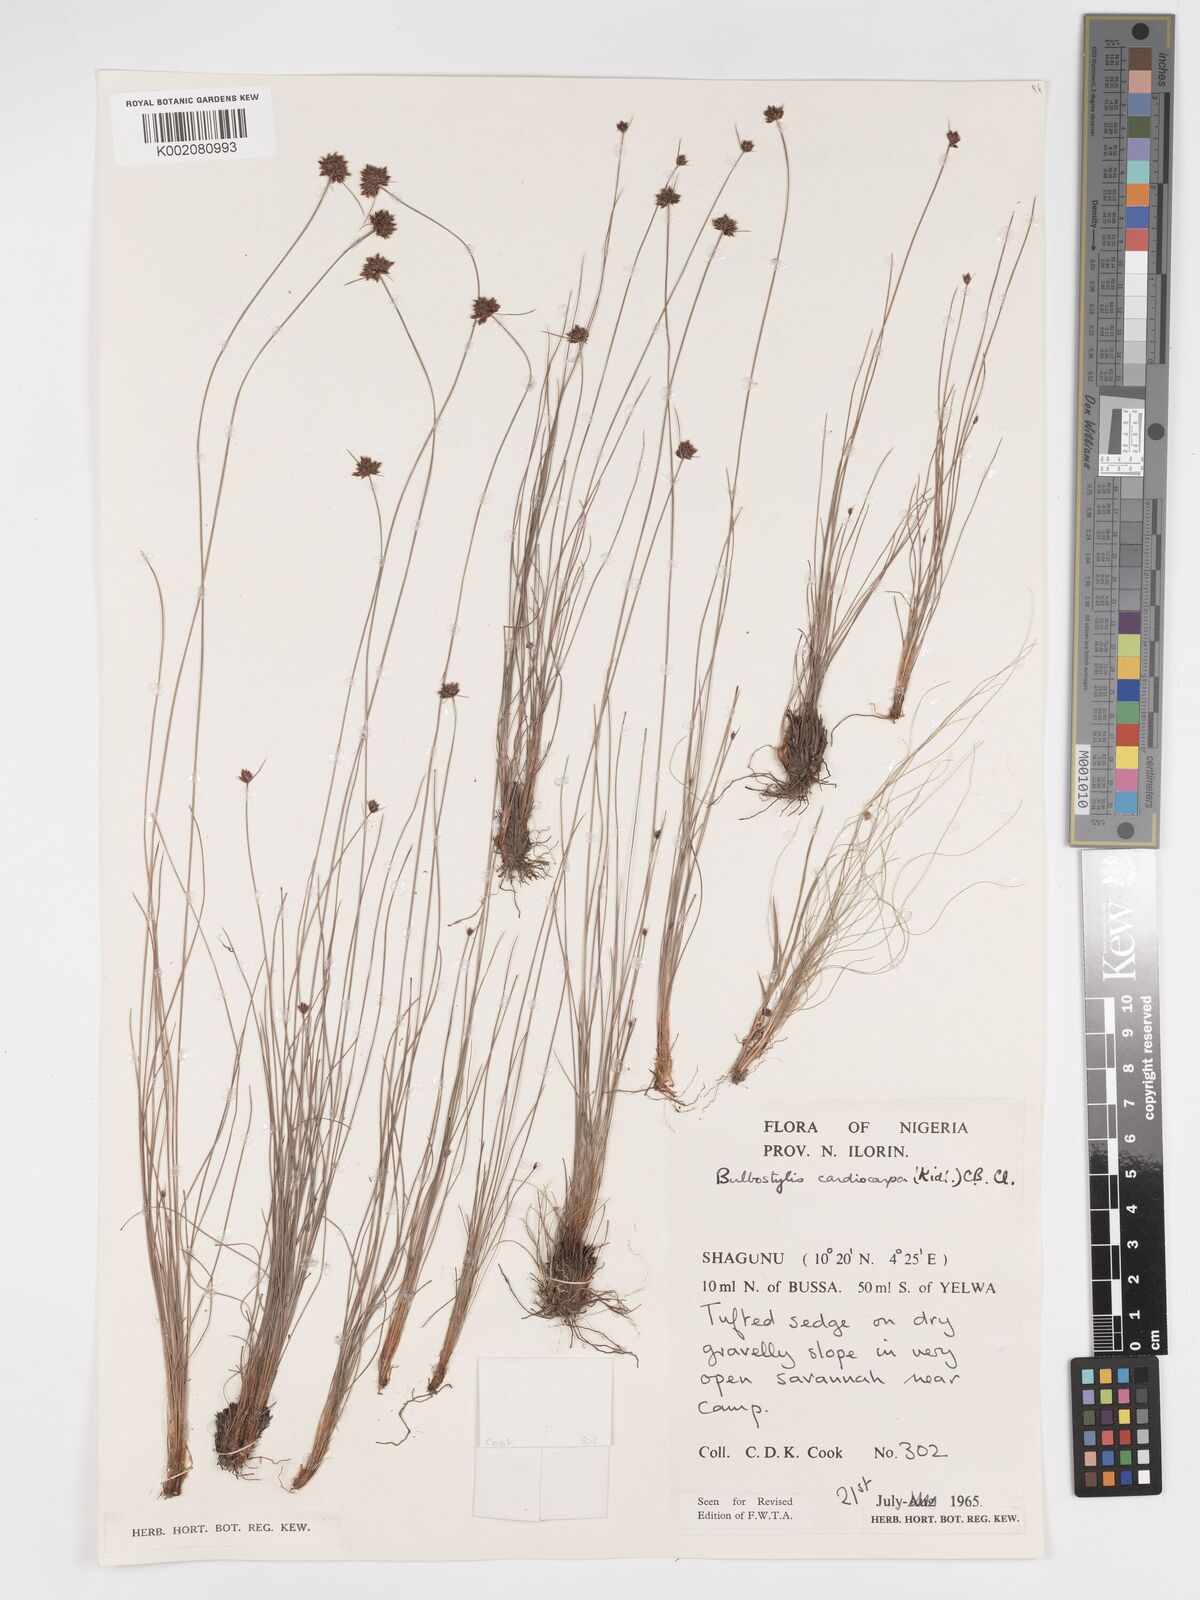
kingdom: Plantae
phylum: Tracheophyta
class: Liliopsida
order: Poales
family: Cyperaceae
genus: Bulbostylis
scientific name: Bulbostylis filamentosa
